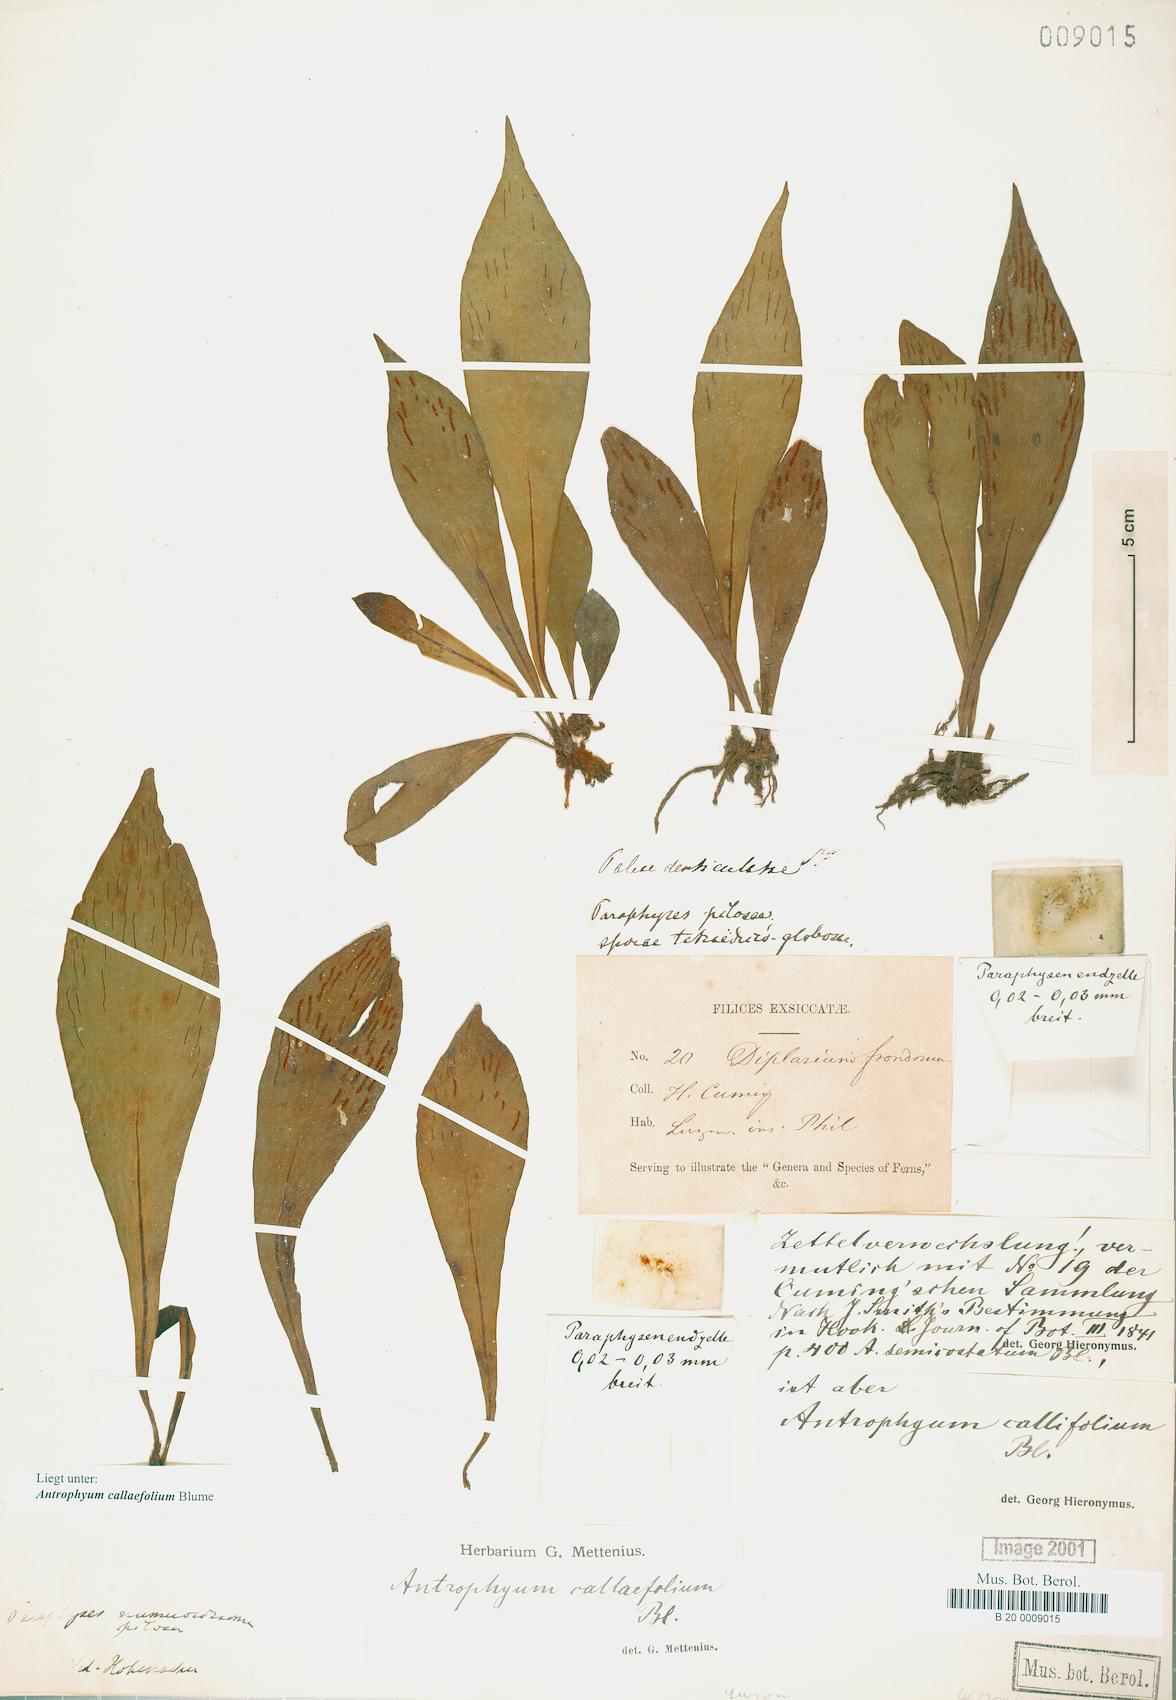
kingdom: Plantae
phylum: Tracheophyta
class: Polypodiopsida
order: Polypodiales
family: Pteridaceae
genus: Antrophyum
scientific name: Antrophyum callifolium
